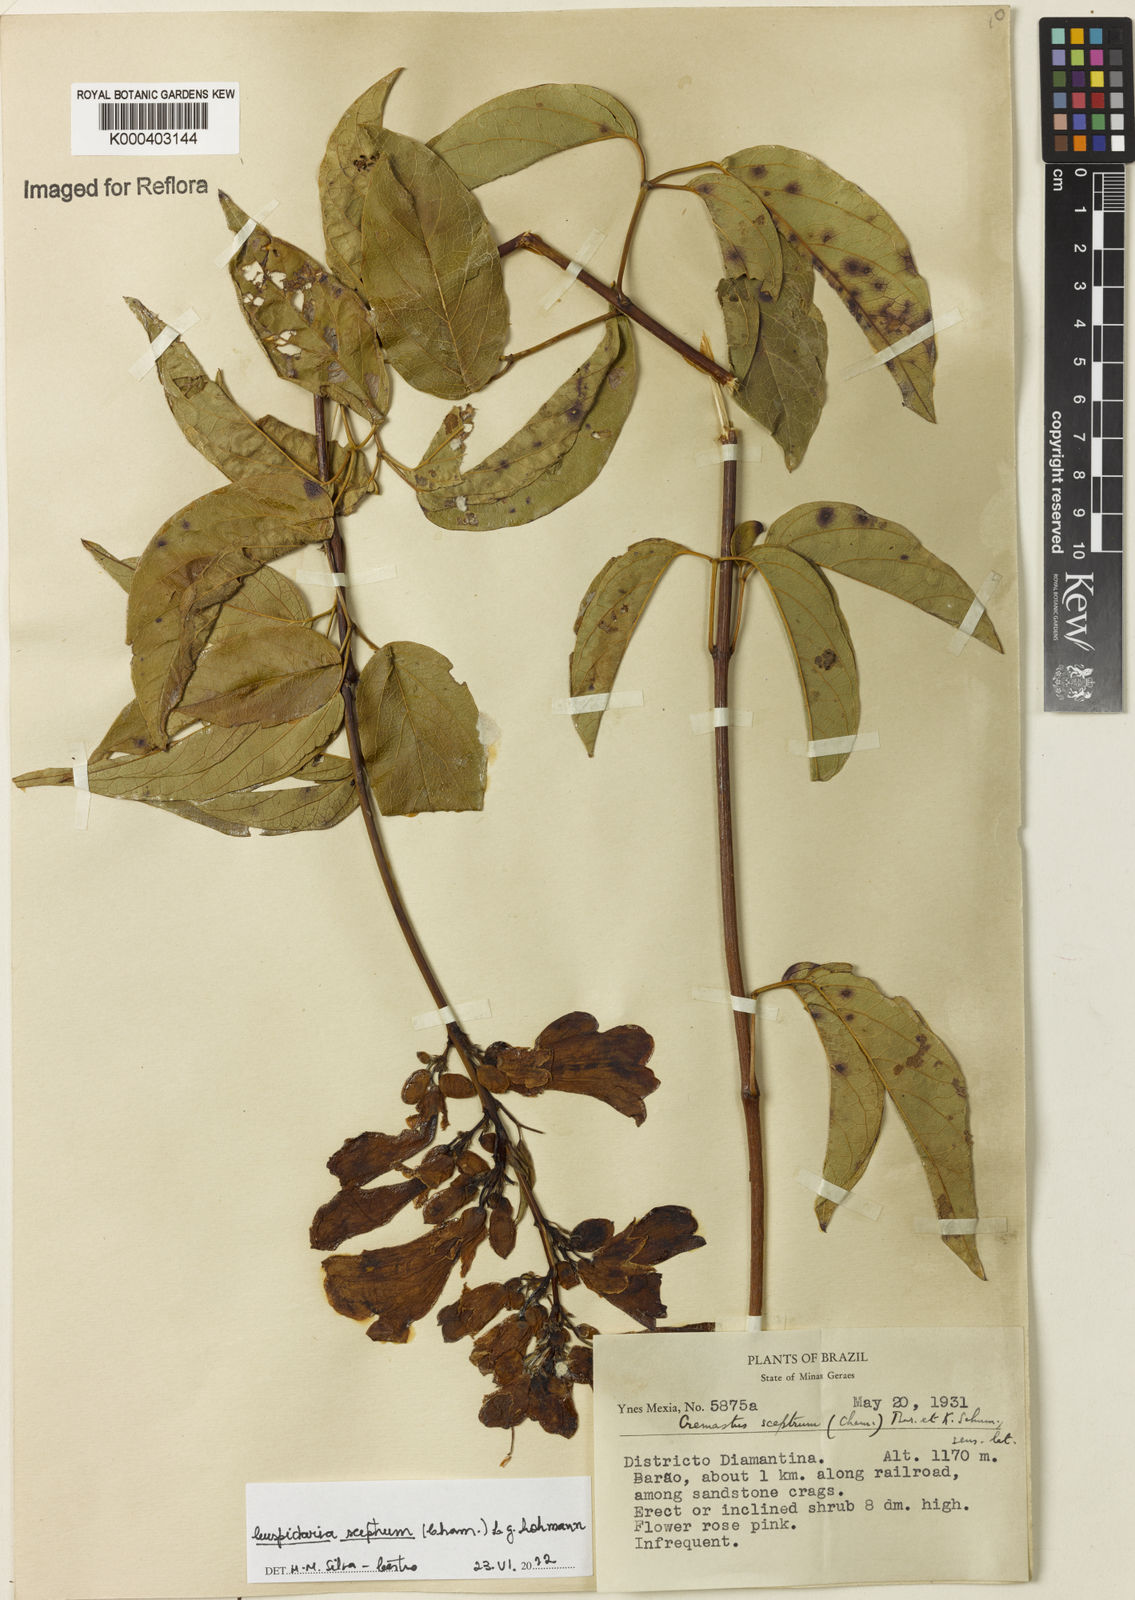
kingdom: Plantae
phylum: Tracheophyta
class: Magnoliopsida
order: Lamiales
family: Bignoniaceae
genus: Cuspidaria
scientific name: Cuspidaria sceptrum
